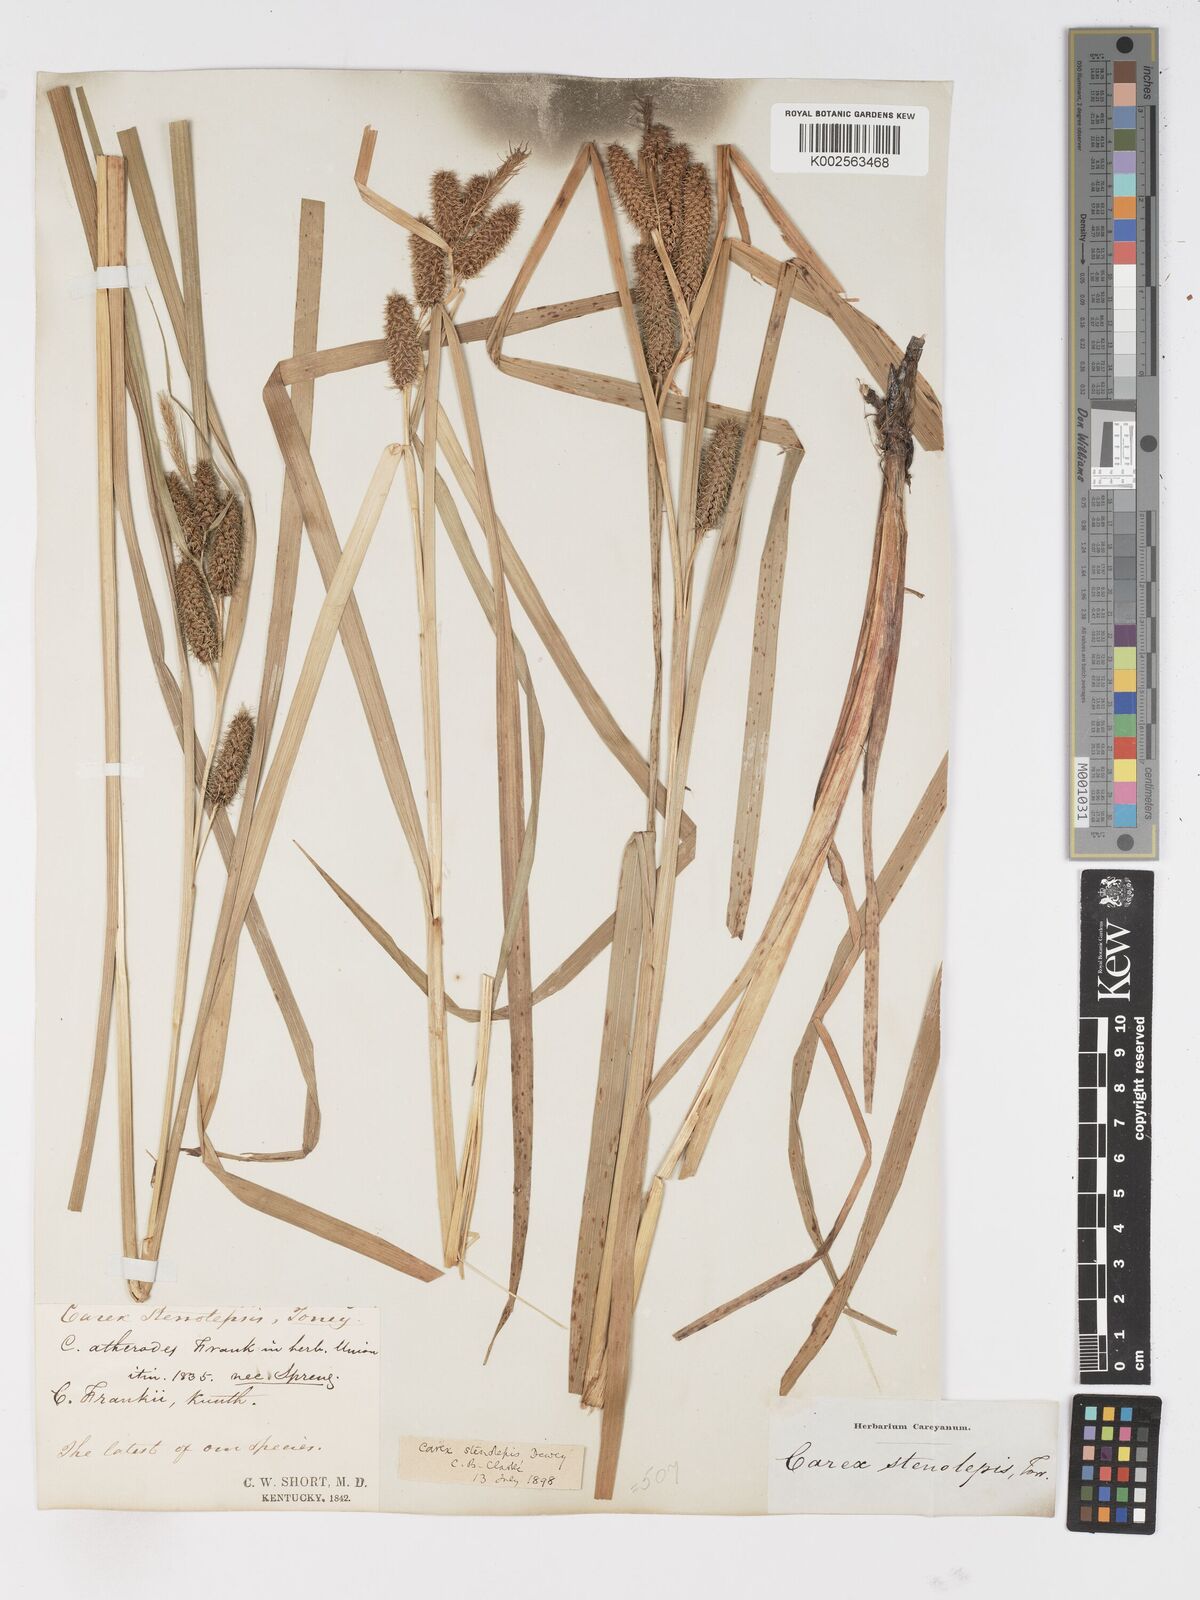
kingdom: Plantae
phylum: Tracheophyta
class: Liliopsida
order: Poales
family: Cyperaceae
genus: Carex
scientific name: Carex frankii
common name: Frank's sedge
